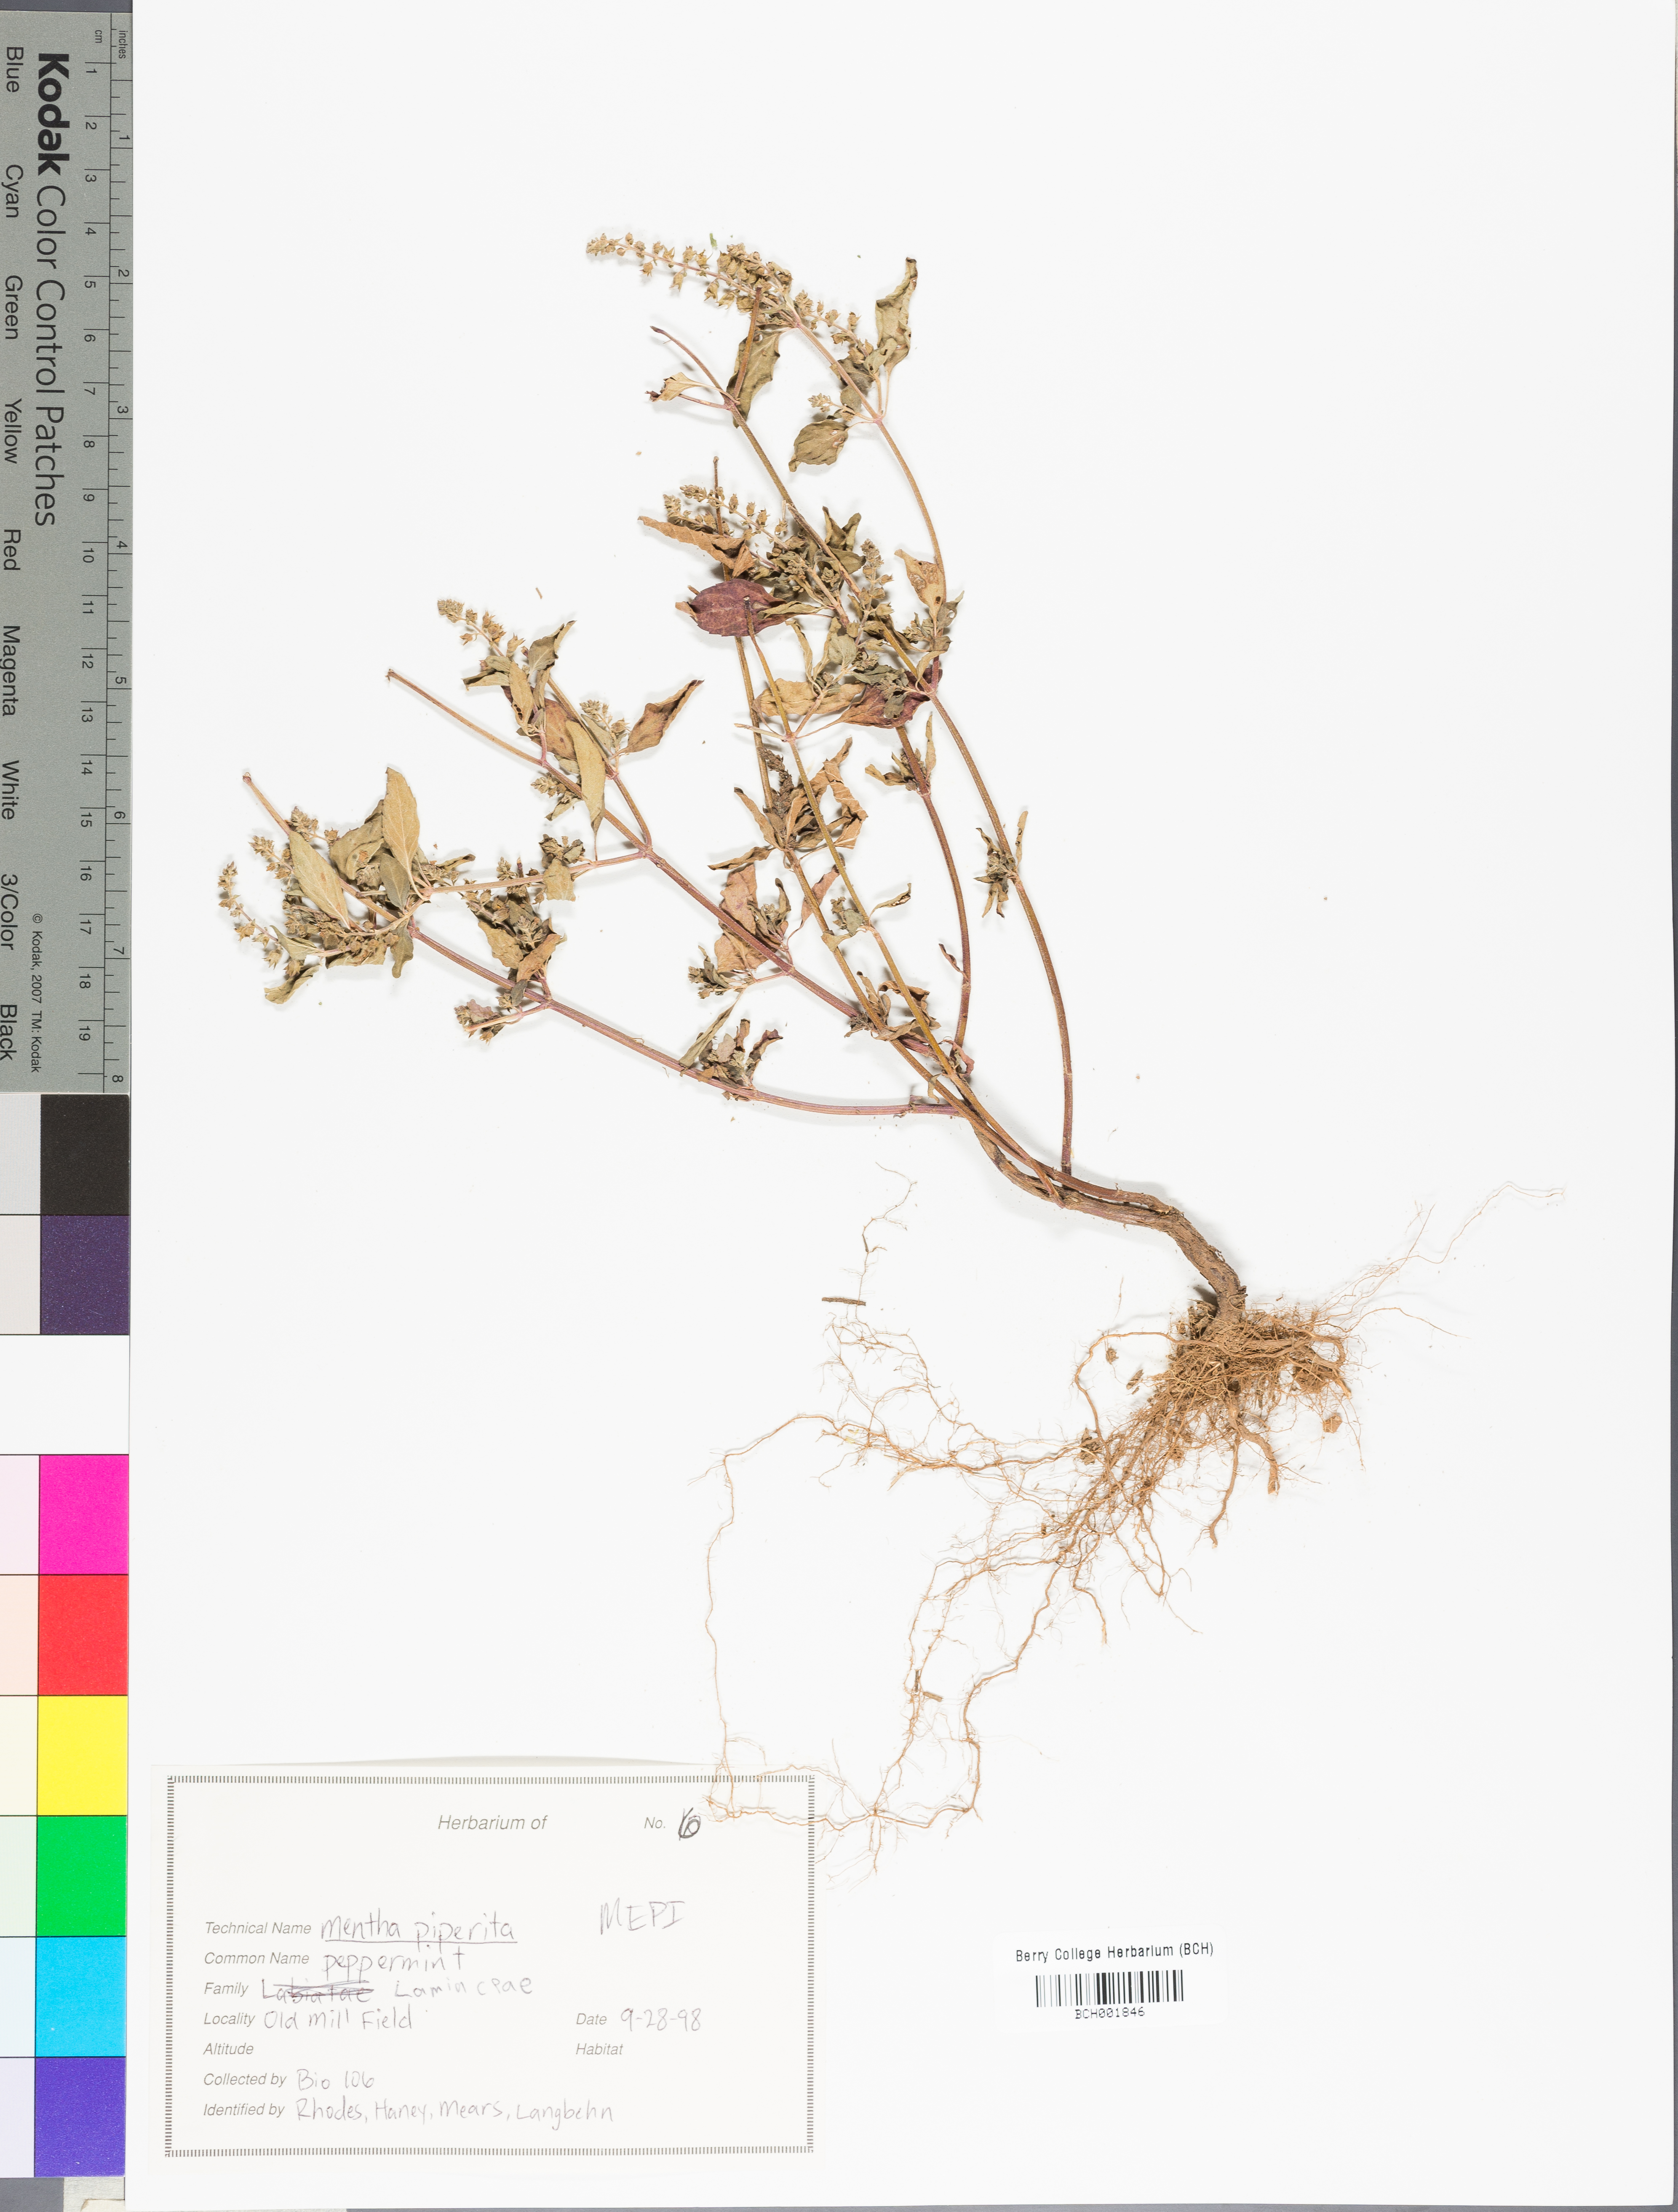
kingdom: Plantae
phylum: Tracheophyta
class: Magnoliopsida
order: Lamiales
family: Lamiaceae
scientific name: Lamiaceae
